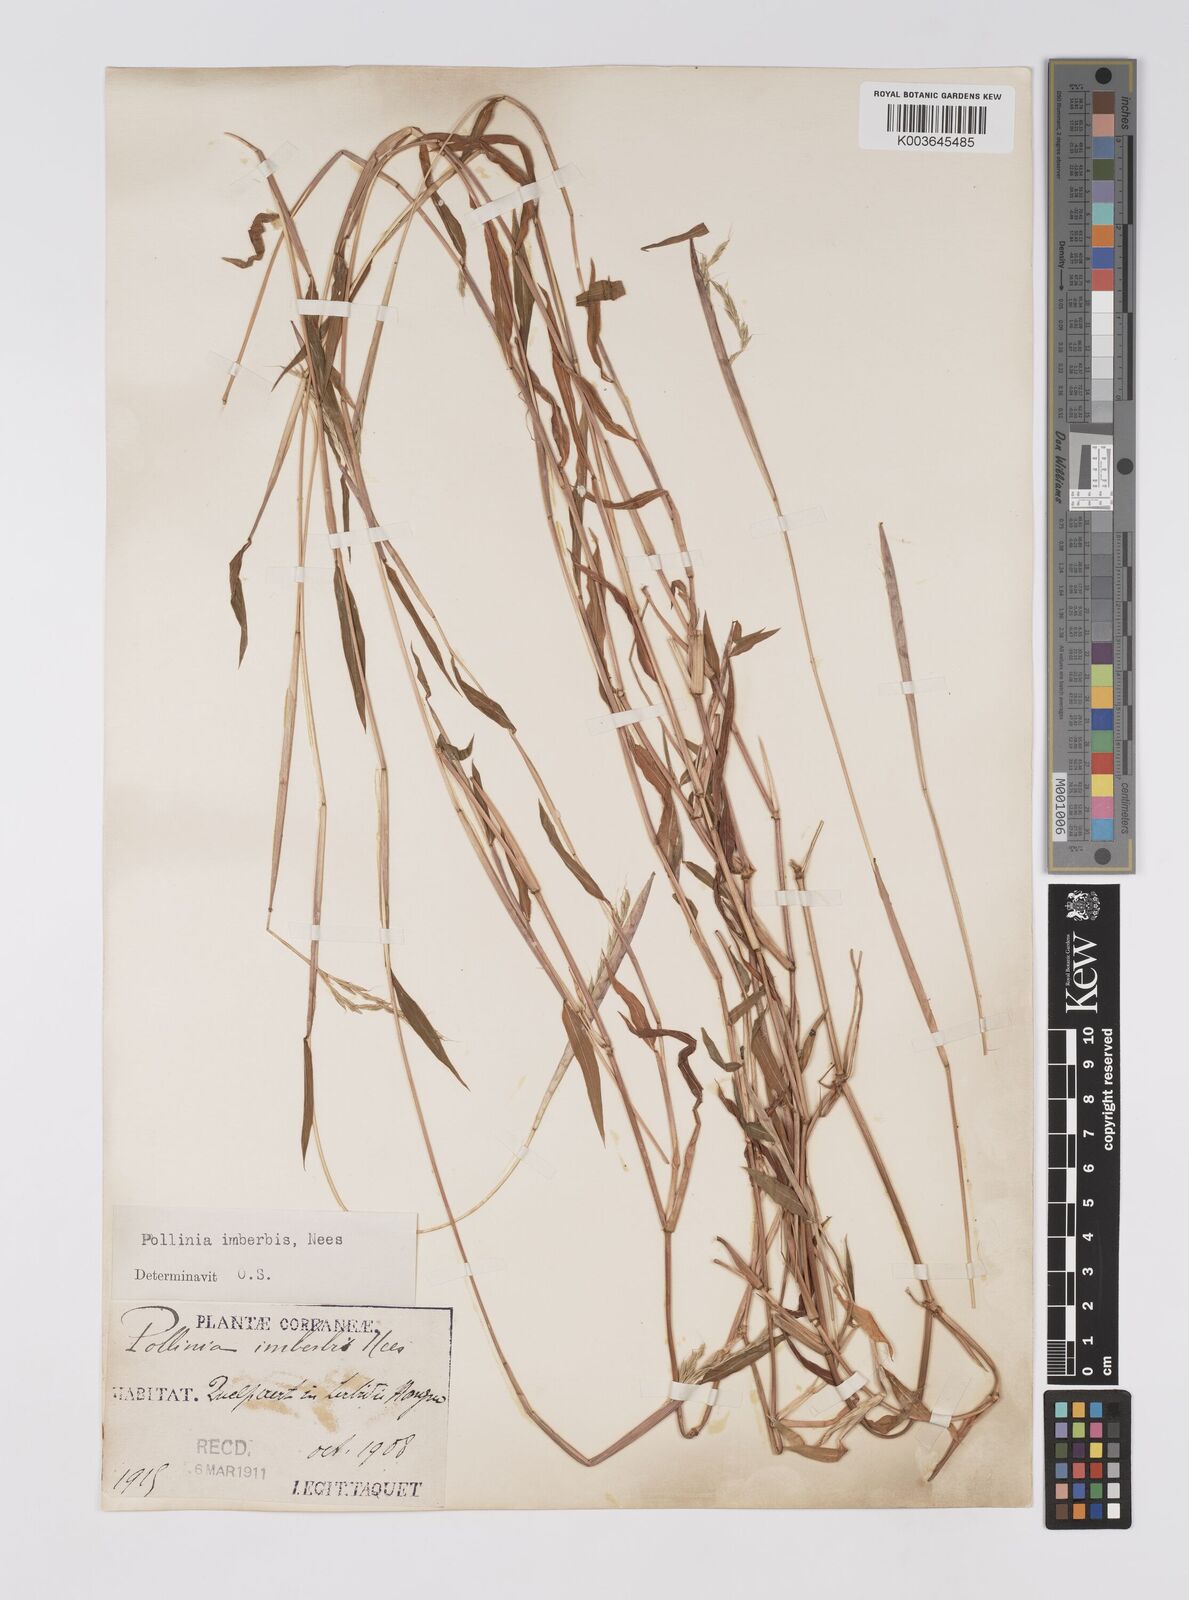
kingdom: Plantae
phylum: Tracheophyta
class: Liliopsida
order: Poales
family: Poaceae
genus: Microstegium
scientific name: Microstegium vimineum
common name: Japanese stiltgrass
